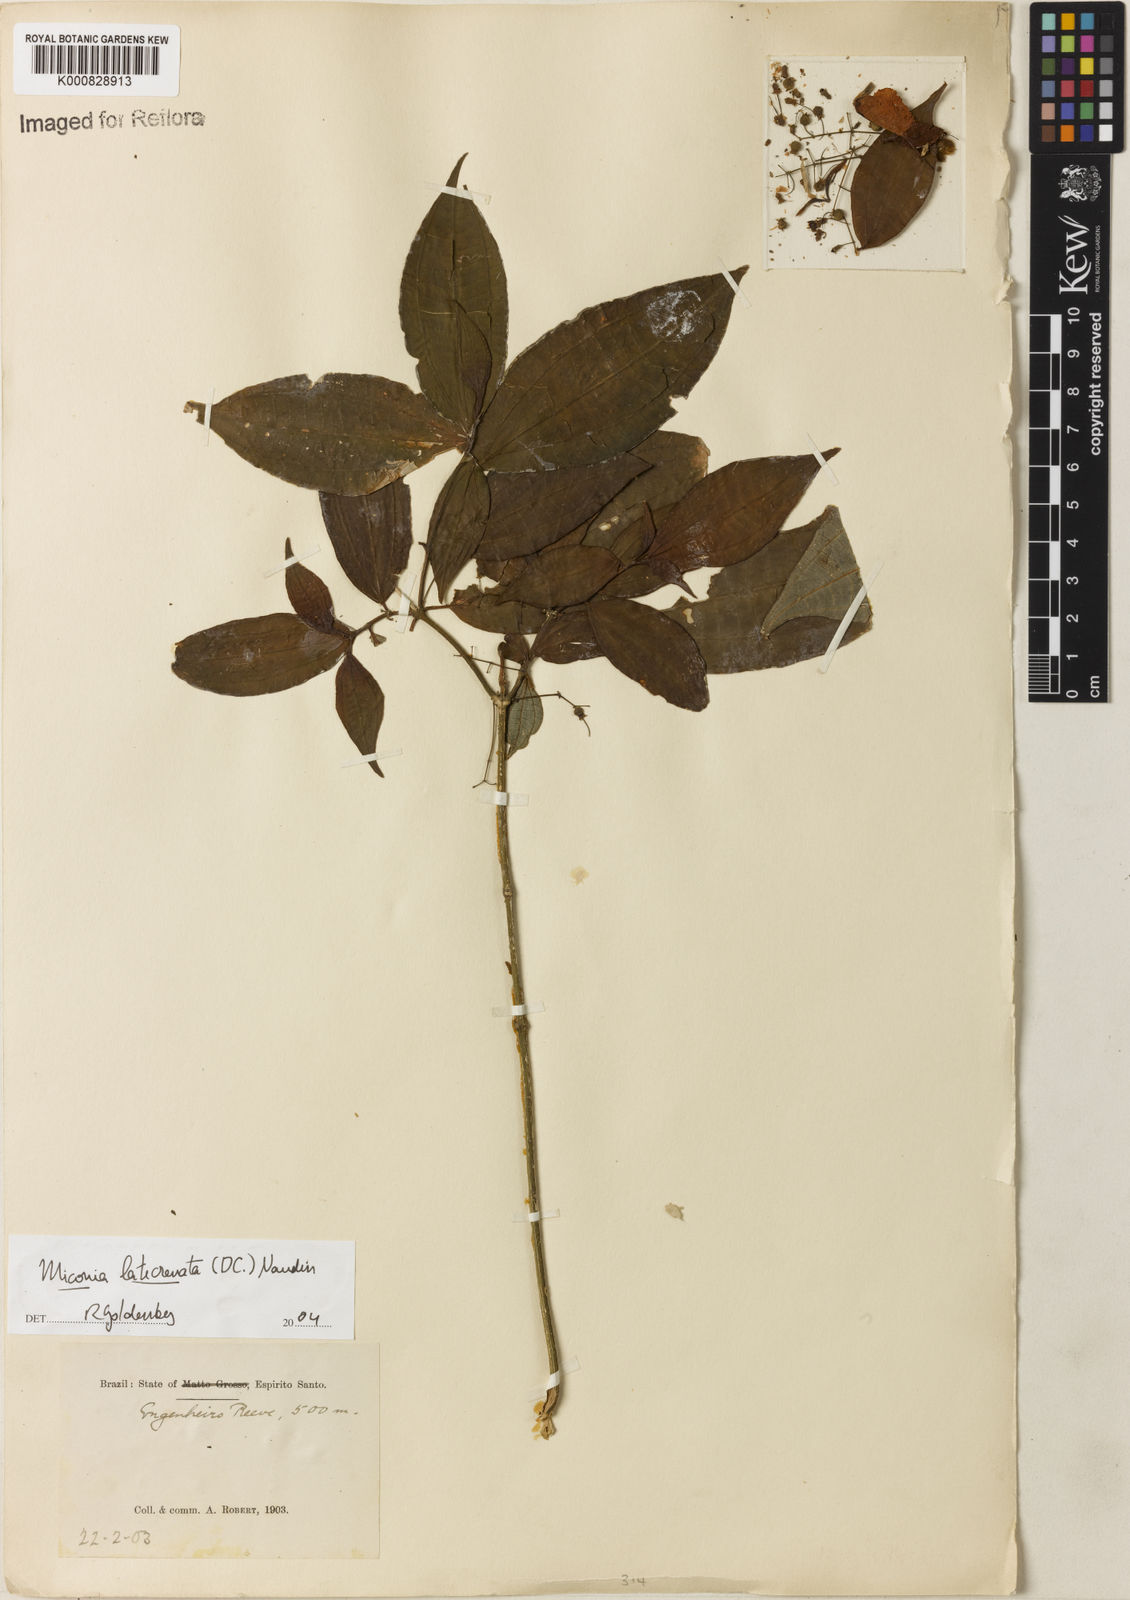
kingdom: Plantae
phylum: Tracheophyta
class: Magnoliopsida
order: Myrtales
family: Melastomataceae
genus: Miconia
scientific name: Miconia latecrenata
